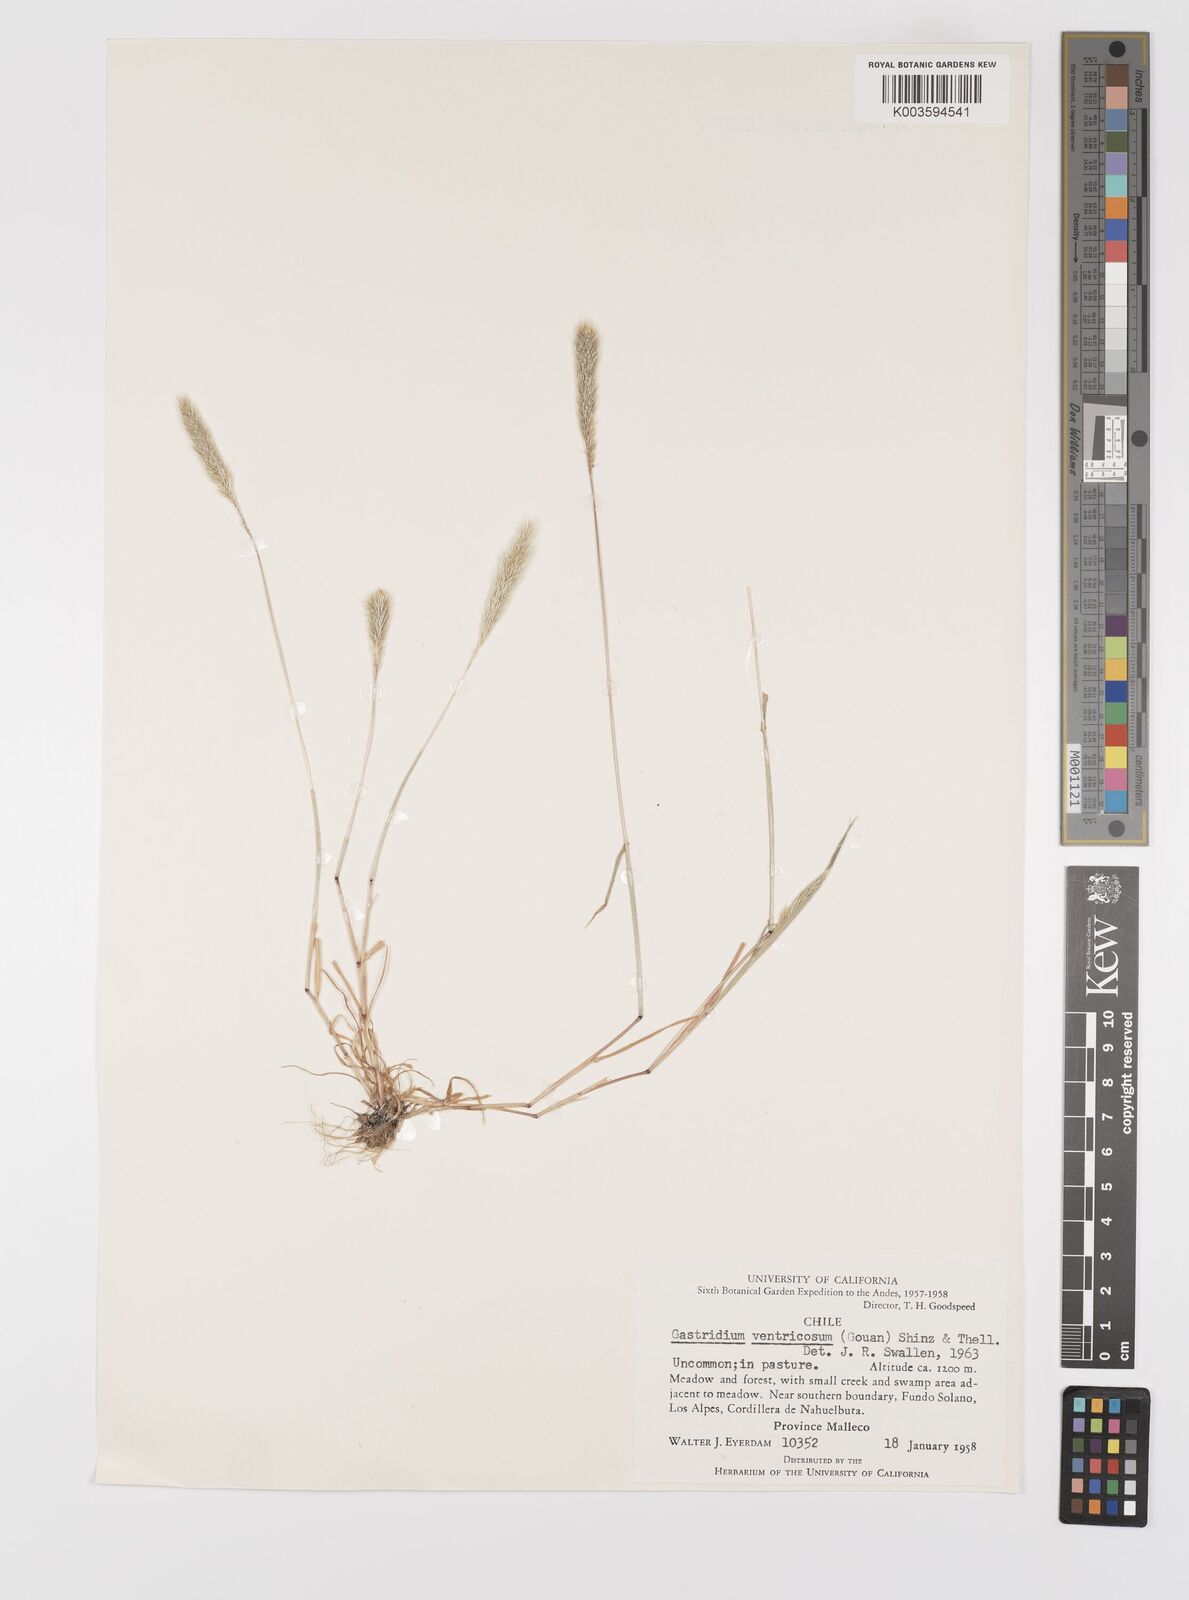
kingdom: Plantae
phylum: Tracheophyta
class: Liliopsida
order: Poales
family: Poaceae
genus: Gastridium
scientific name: Gastridium phleoides
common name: Nit grass
